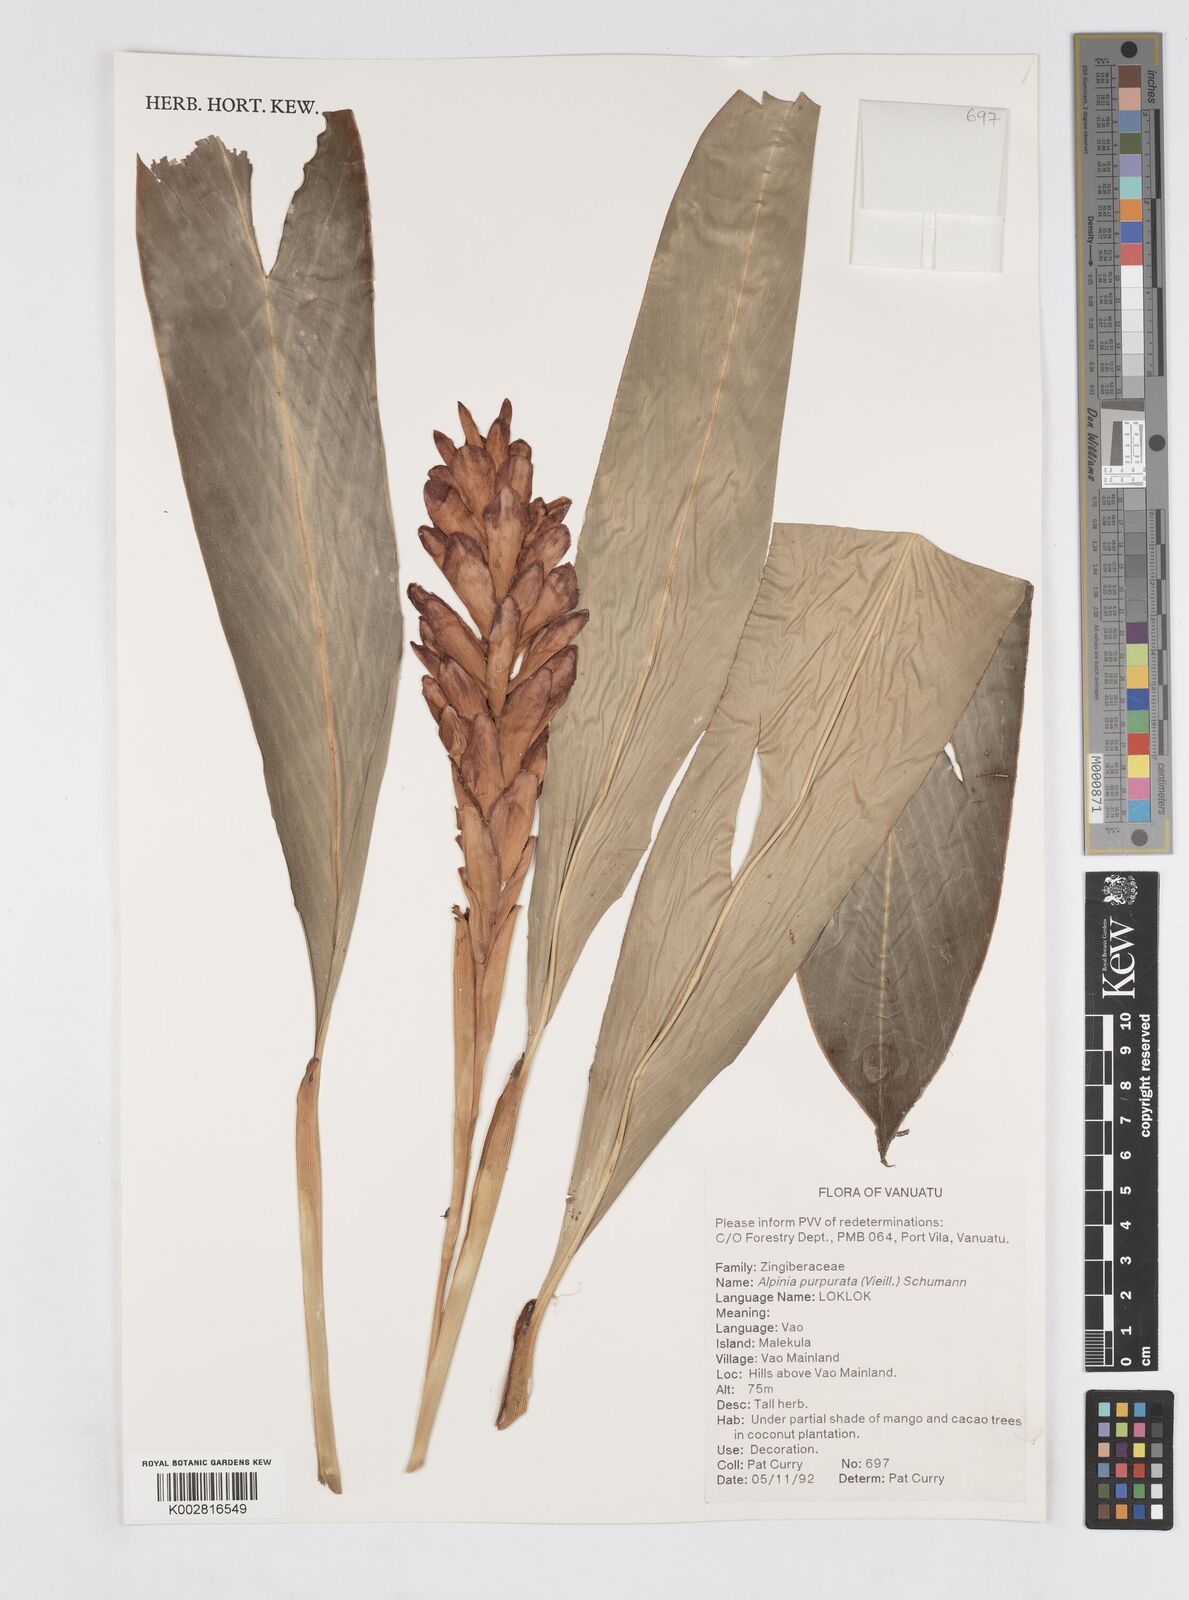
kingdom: Plantae
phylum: Tracheophyta
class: Liliopsida
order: Zingiberales
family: Zingiberaceae
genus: Alpinia
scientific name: Alpinia purpurata
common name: Red ginger
